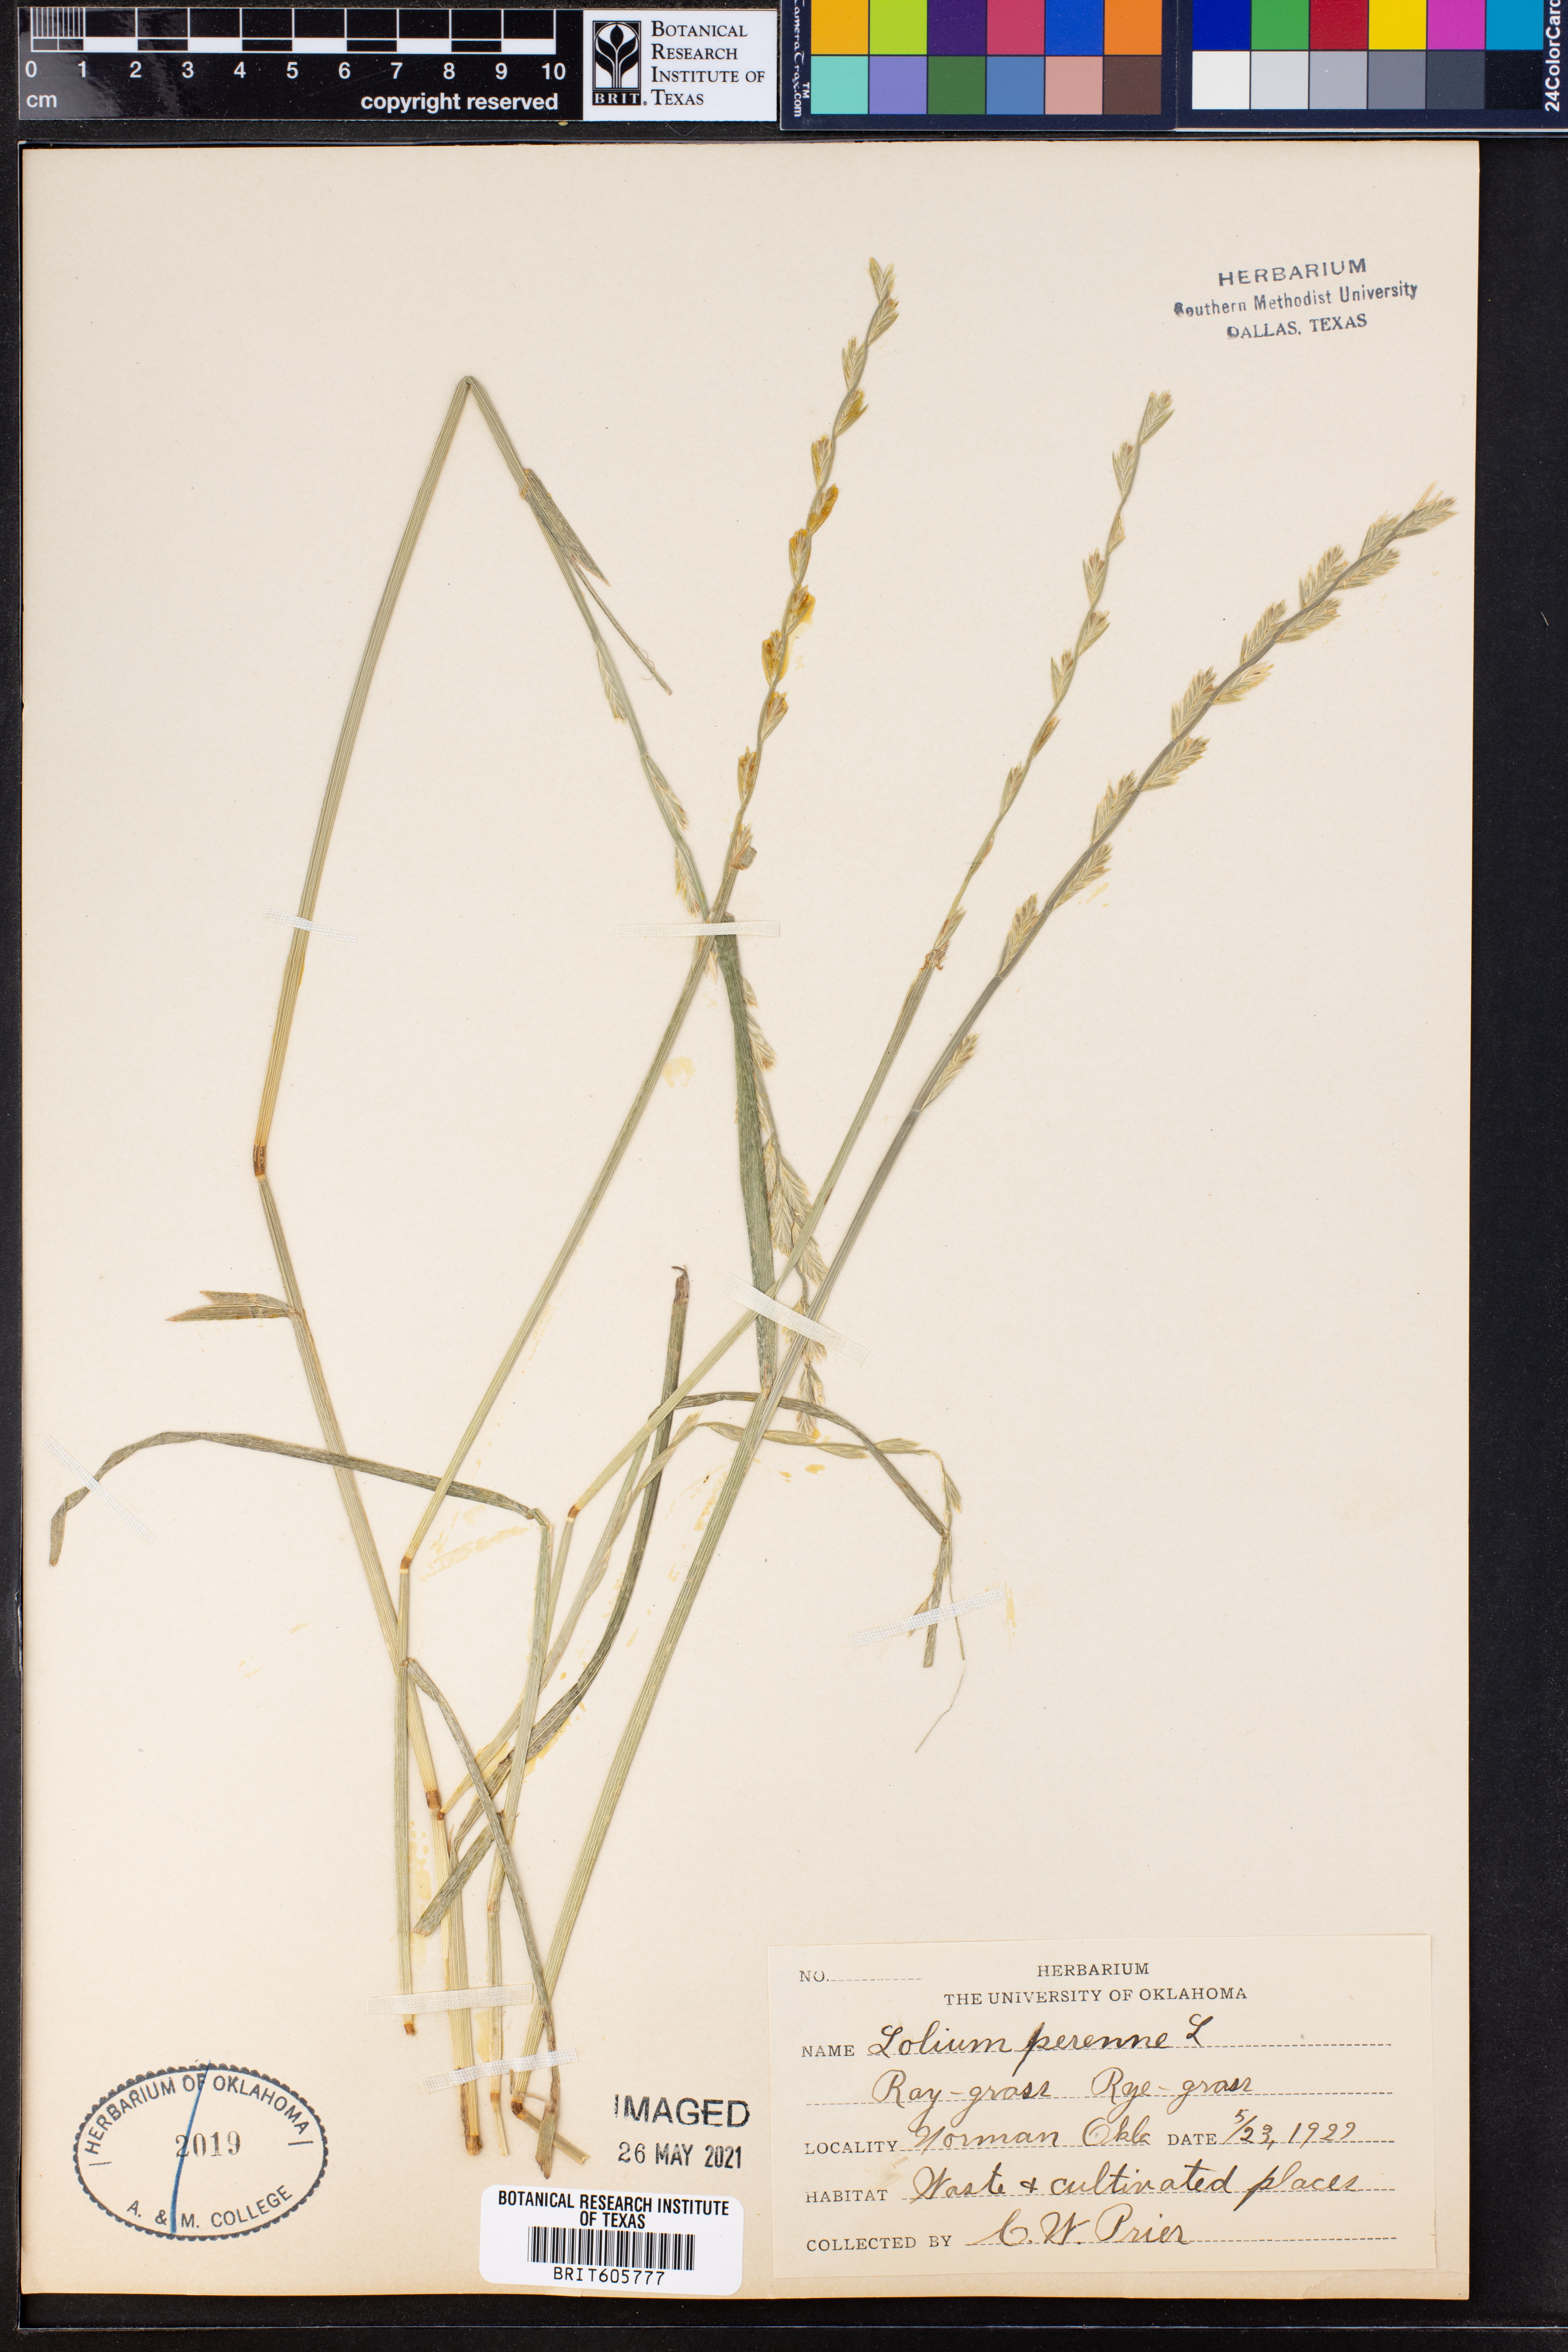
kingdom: Plantae
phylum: Tracheophyta
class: Liliopsida
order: Poales
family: Poaceae
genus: Lolium
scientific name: Lolium perenne
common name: Perennial ryegrass
